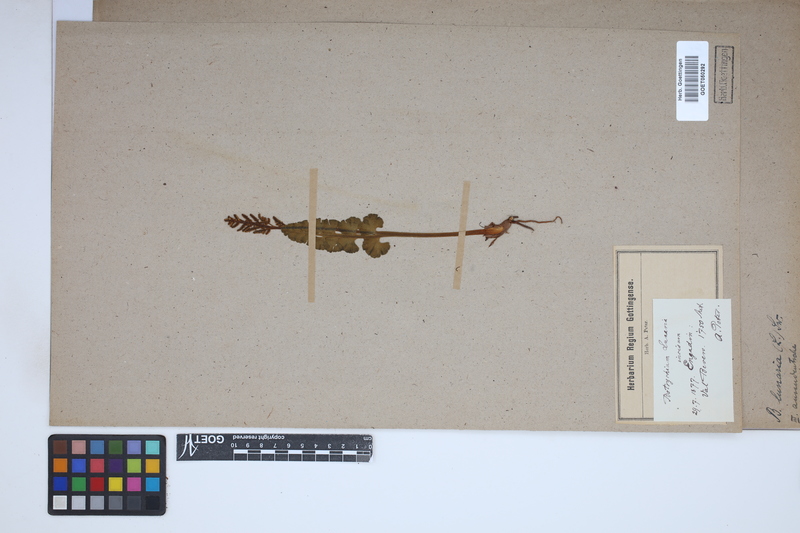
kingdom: Plantae
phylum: Tracheophyta
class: Polypodiopsida
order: Ophioglossales
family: Ophioglossaceae
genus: Botrychium
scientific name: Botrychium lunaria
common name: Moonwort
